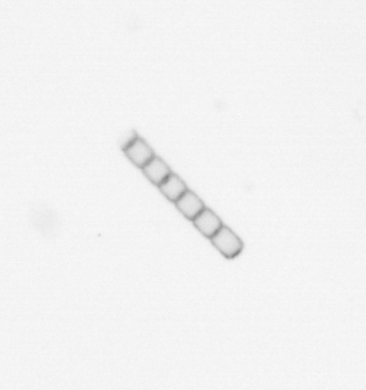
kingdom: Chromista
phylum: Ochrophyta
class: Bacillariophyceae
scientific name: Bacillariophyceae
